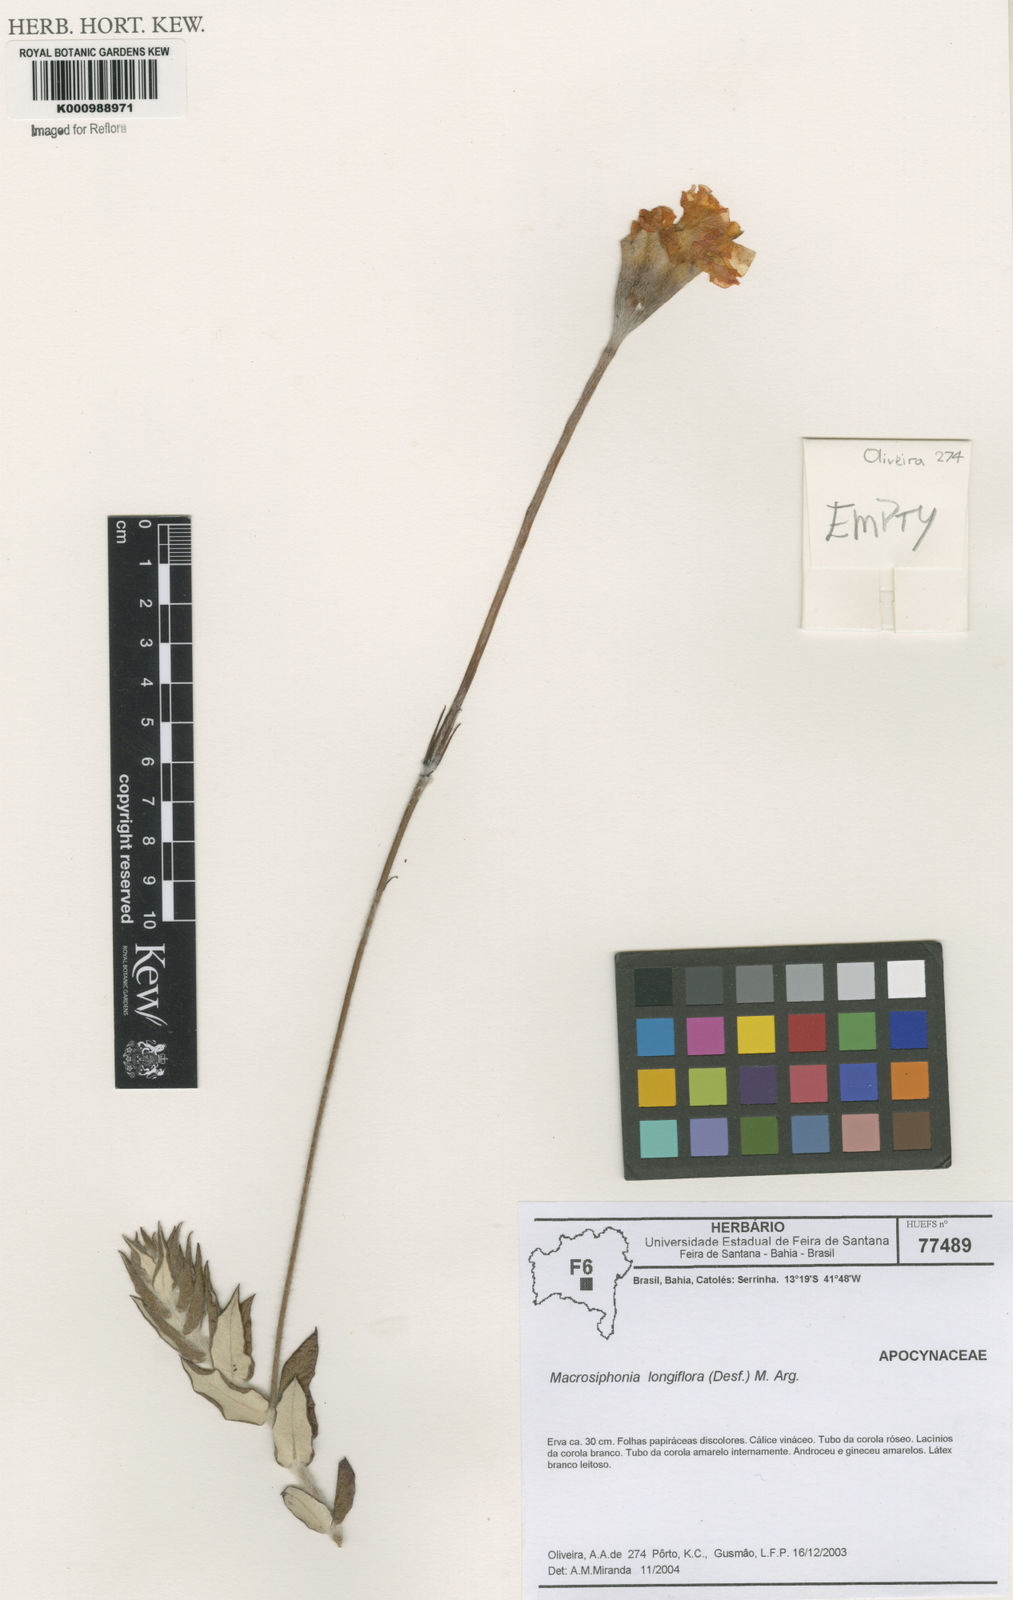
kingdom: Plantae
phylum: Tracheophyta
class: Magnoliopsida
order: Gentianales
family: Apocynaceae
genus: Mandevilla
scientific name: Mandevilla longiflora
